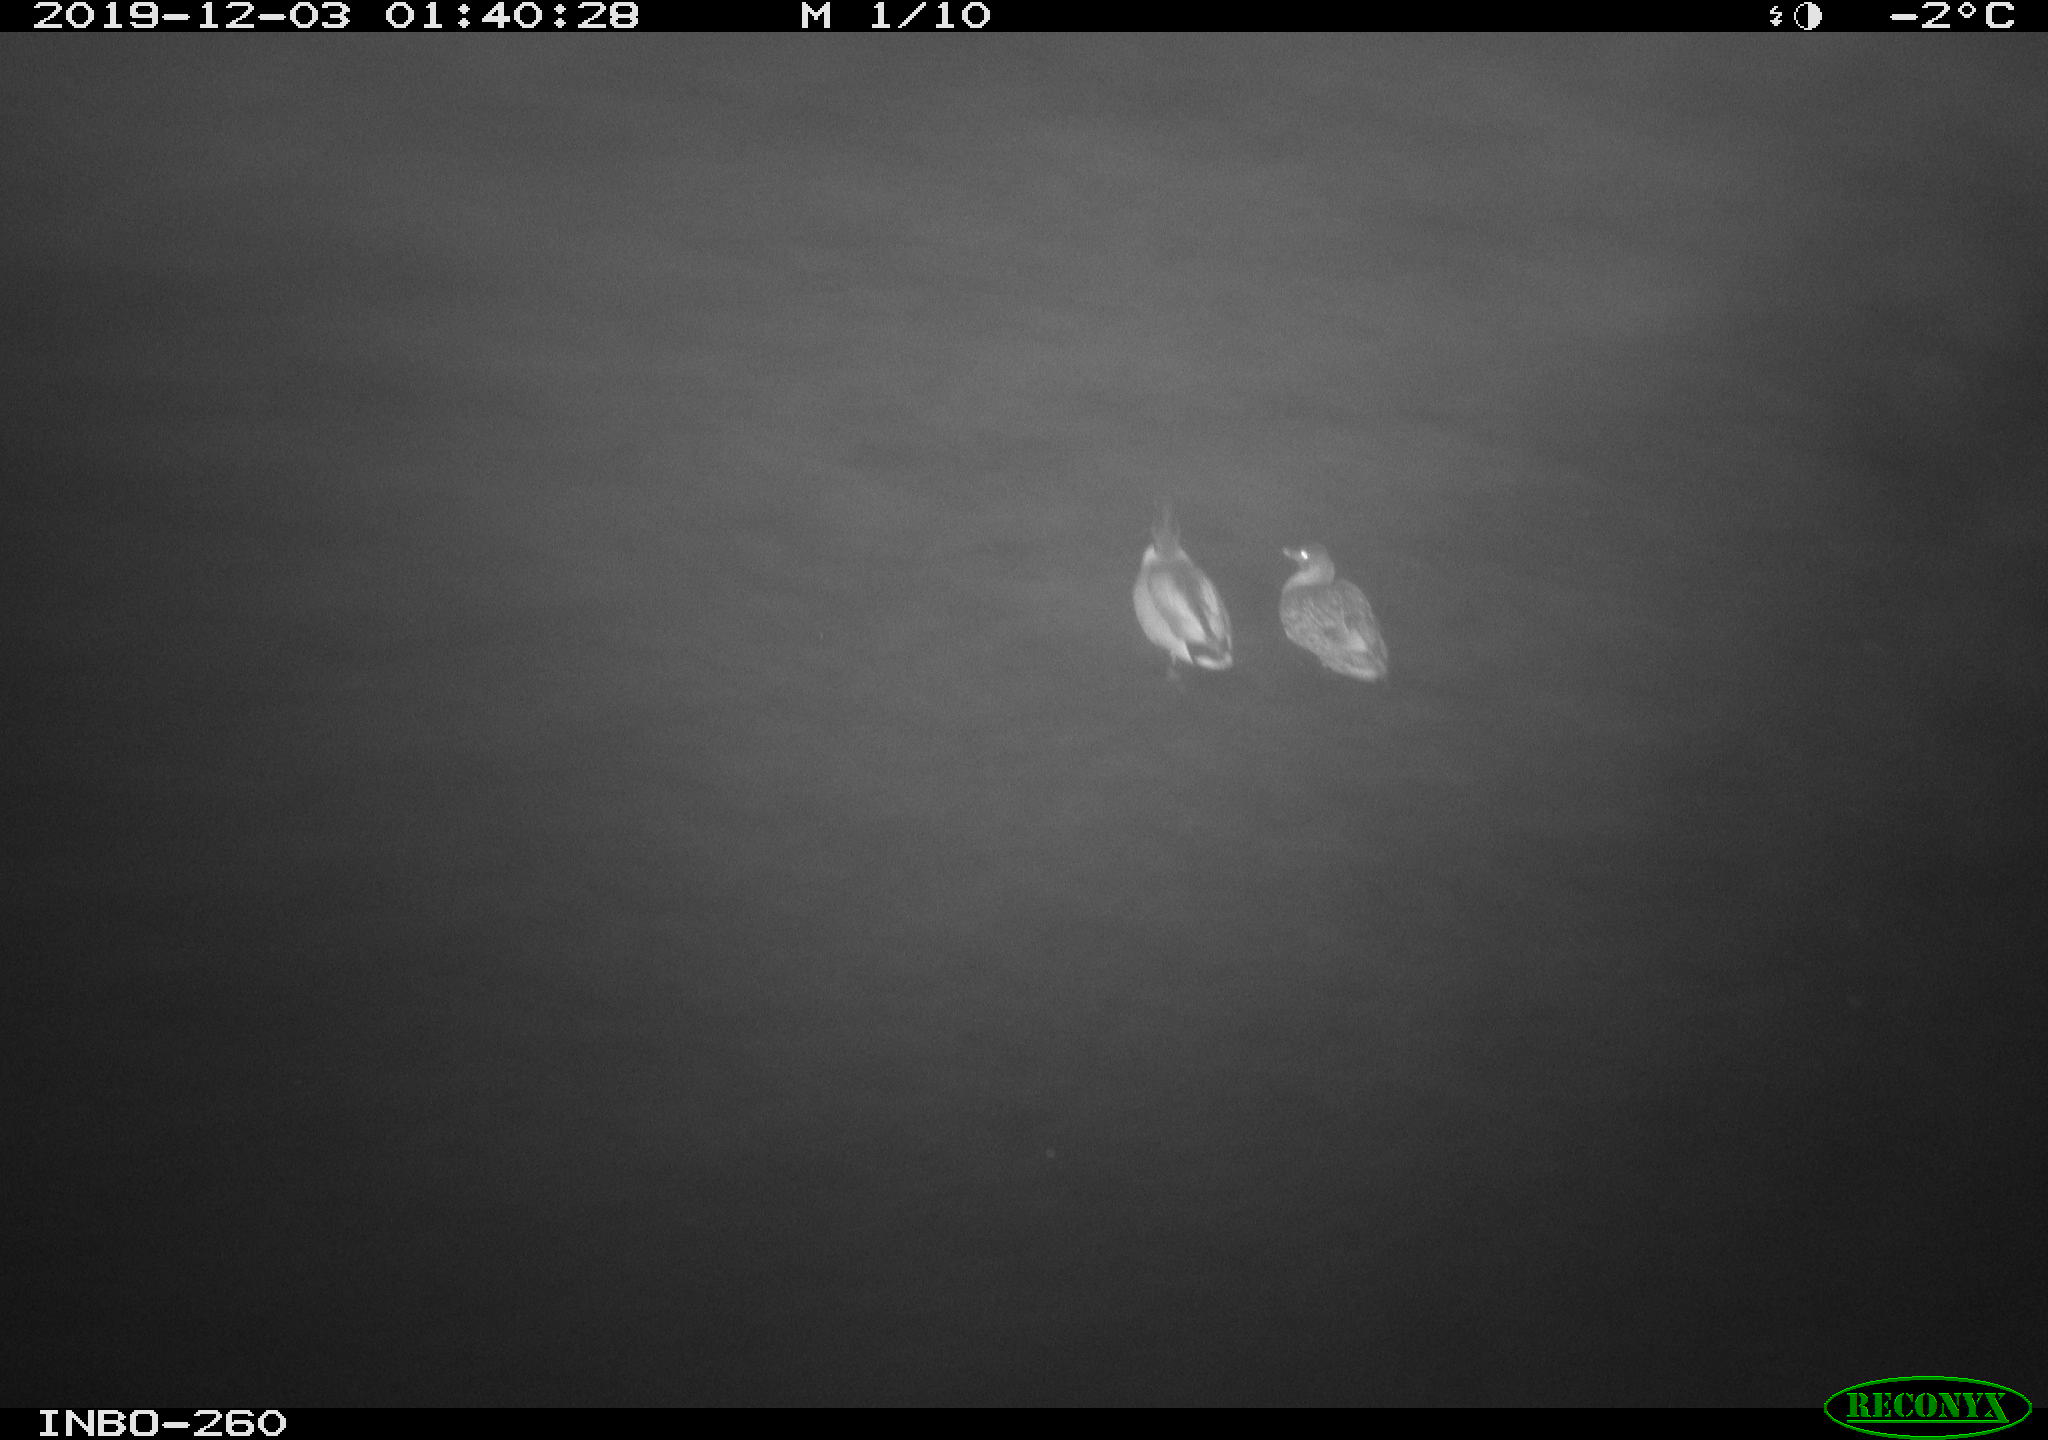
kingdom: Animalia
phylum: Chordata
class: Aves
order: Anseriformes
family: Anatidae
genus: Anas
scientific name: Anas platyrhynchos
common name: Mallard
